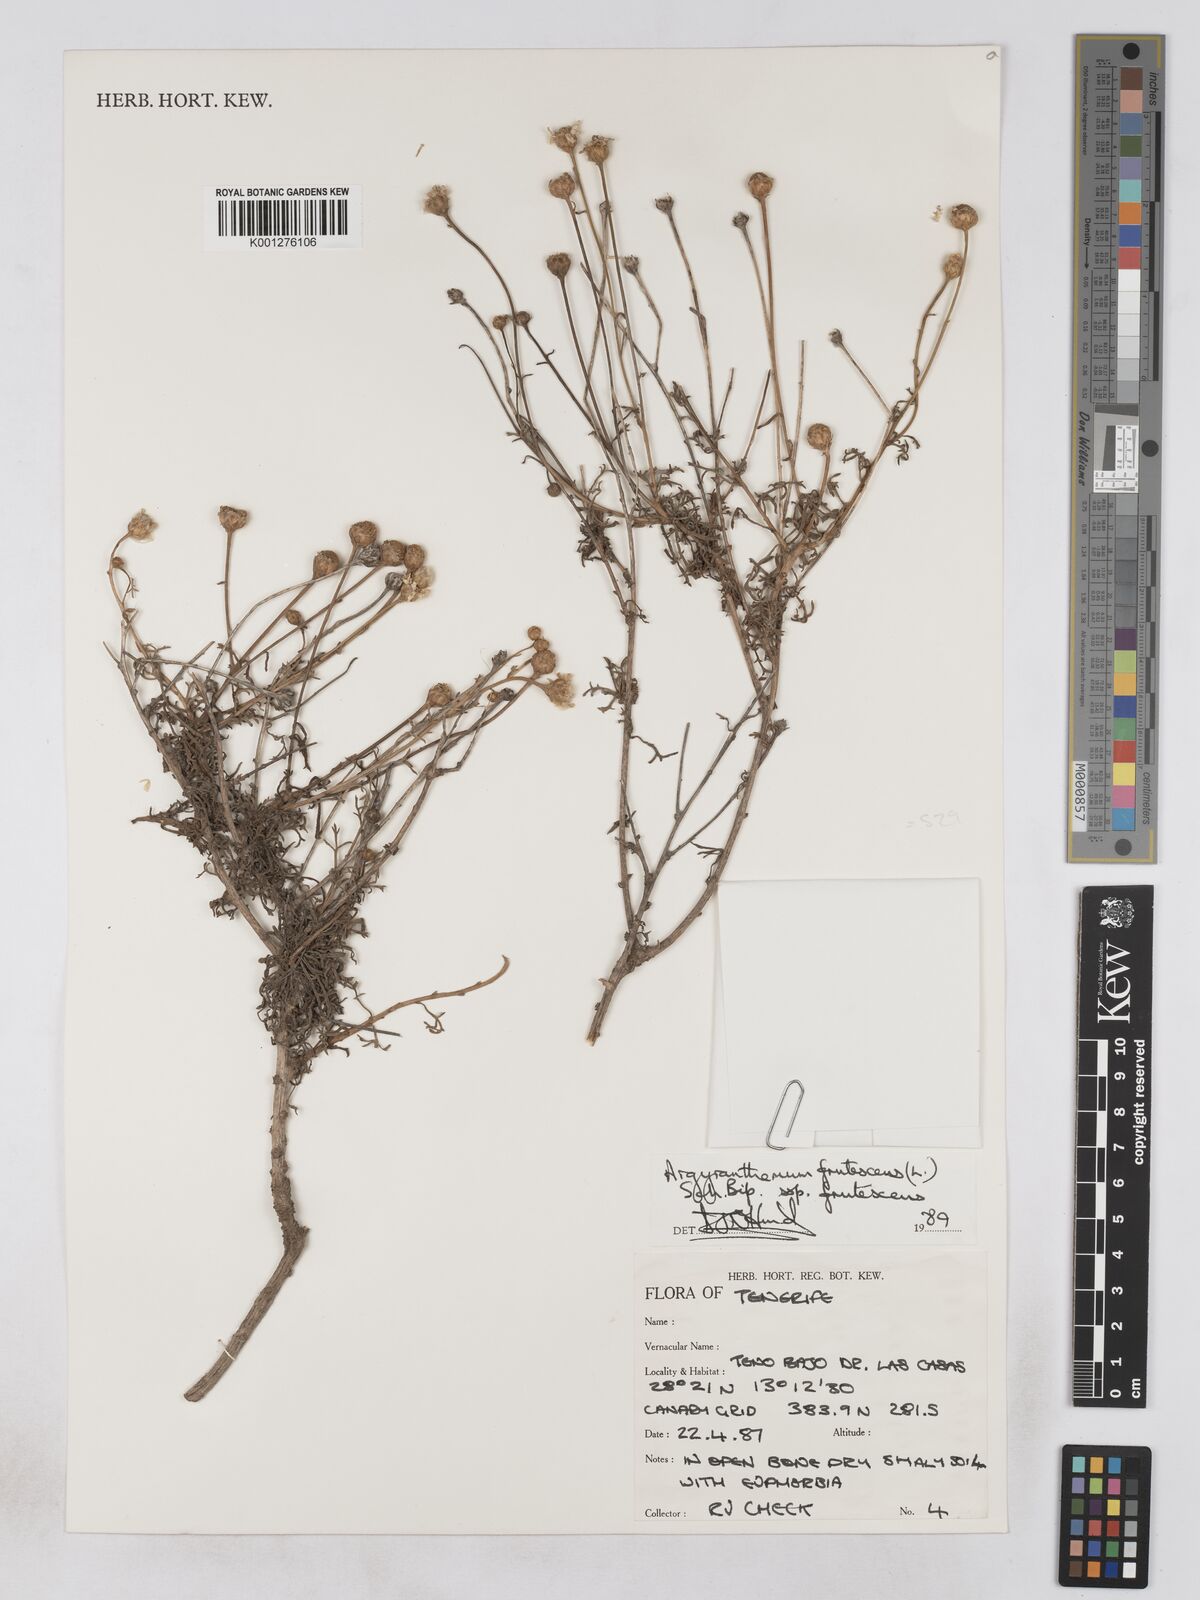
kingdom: Plantae
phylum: Tracheophyta
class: Magnoliopsida
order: Asterales
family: Asteraceae
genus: Argyranthemum
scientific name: Argyranthemum frutescens
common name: Paris daisy
